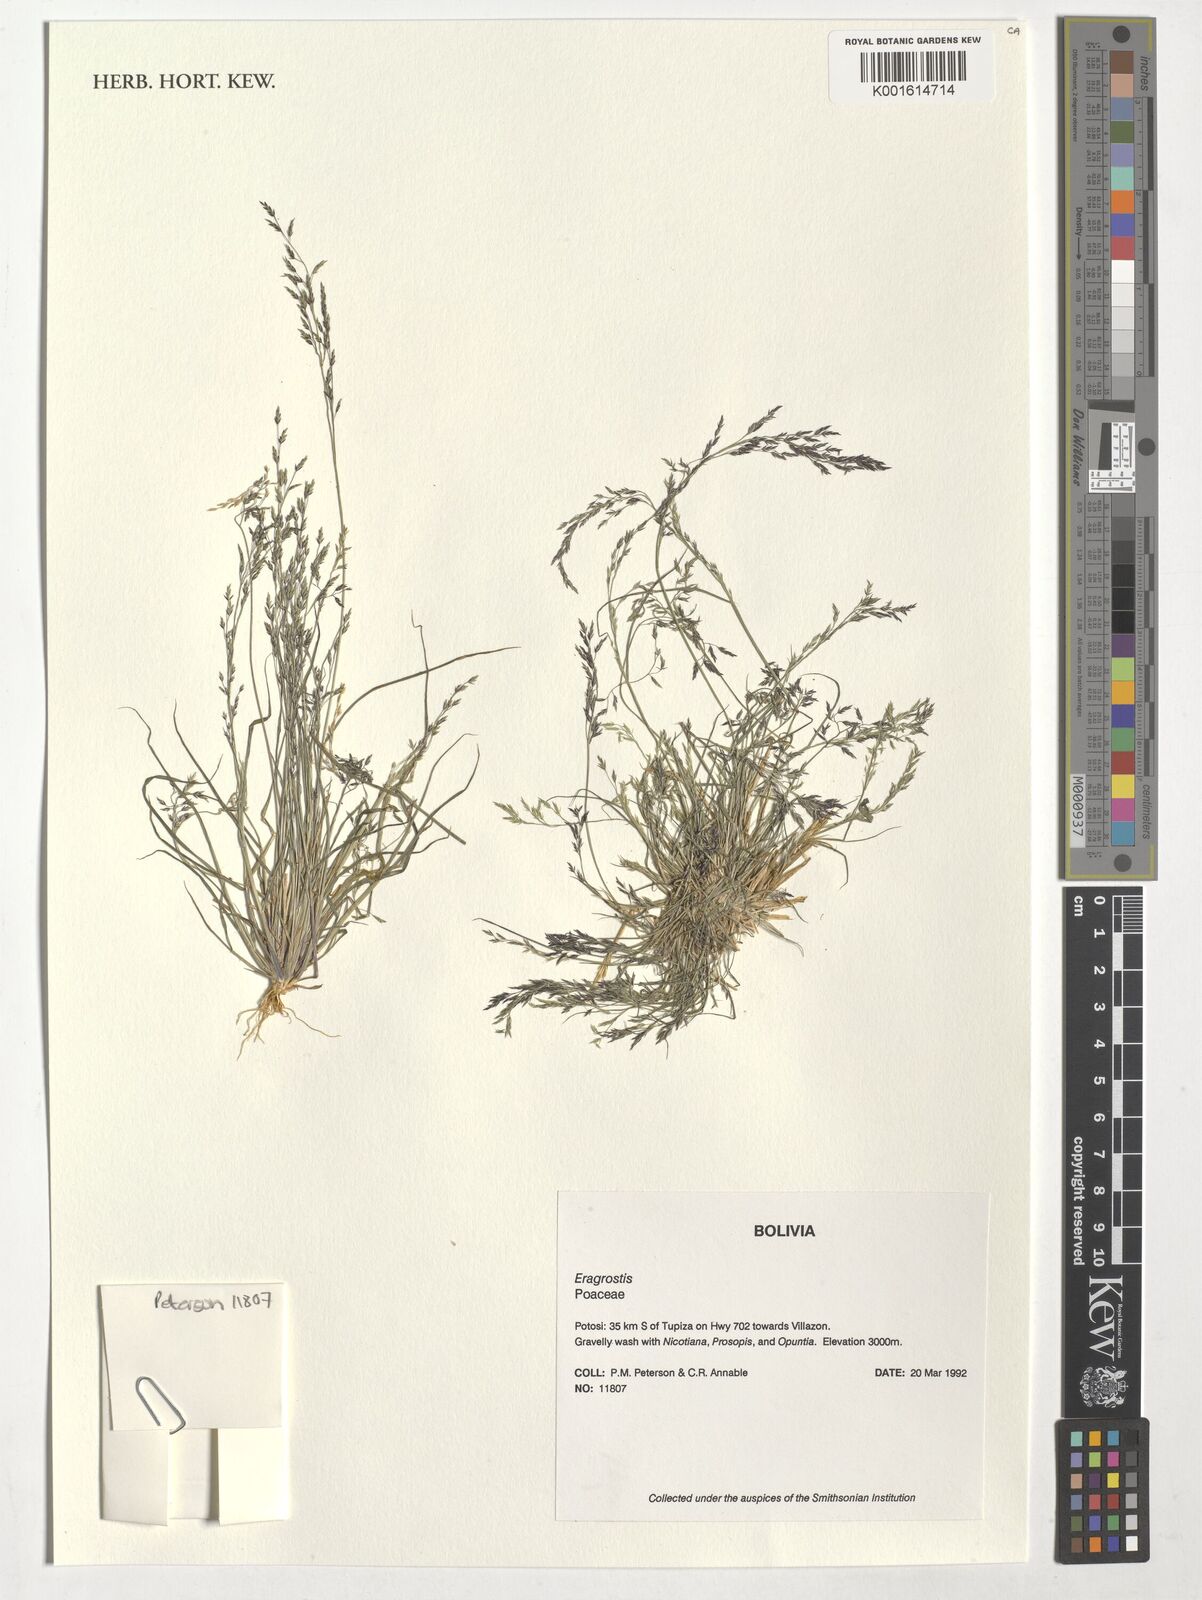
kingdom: Plantae
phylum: Tracheophyta
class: Liliopsida
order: Poales
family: Poaceae
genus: Eragrostis
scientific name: Eragrostis
